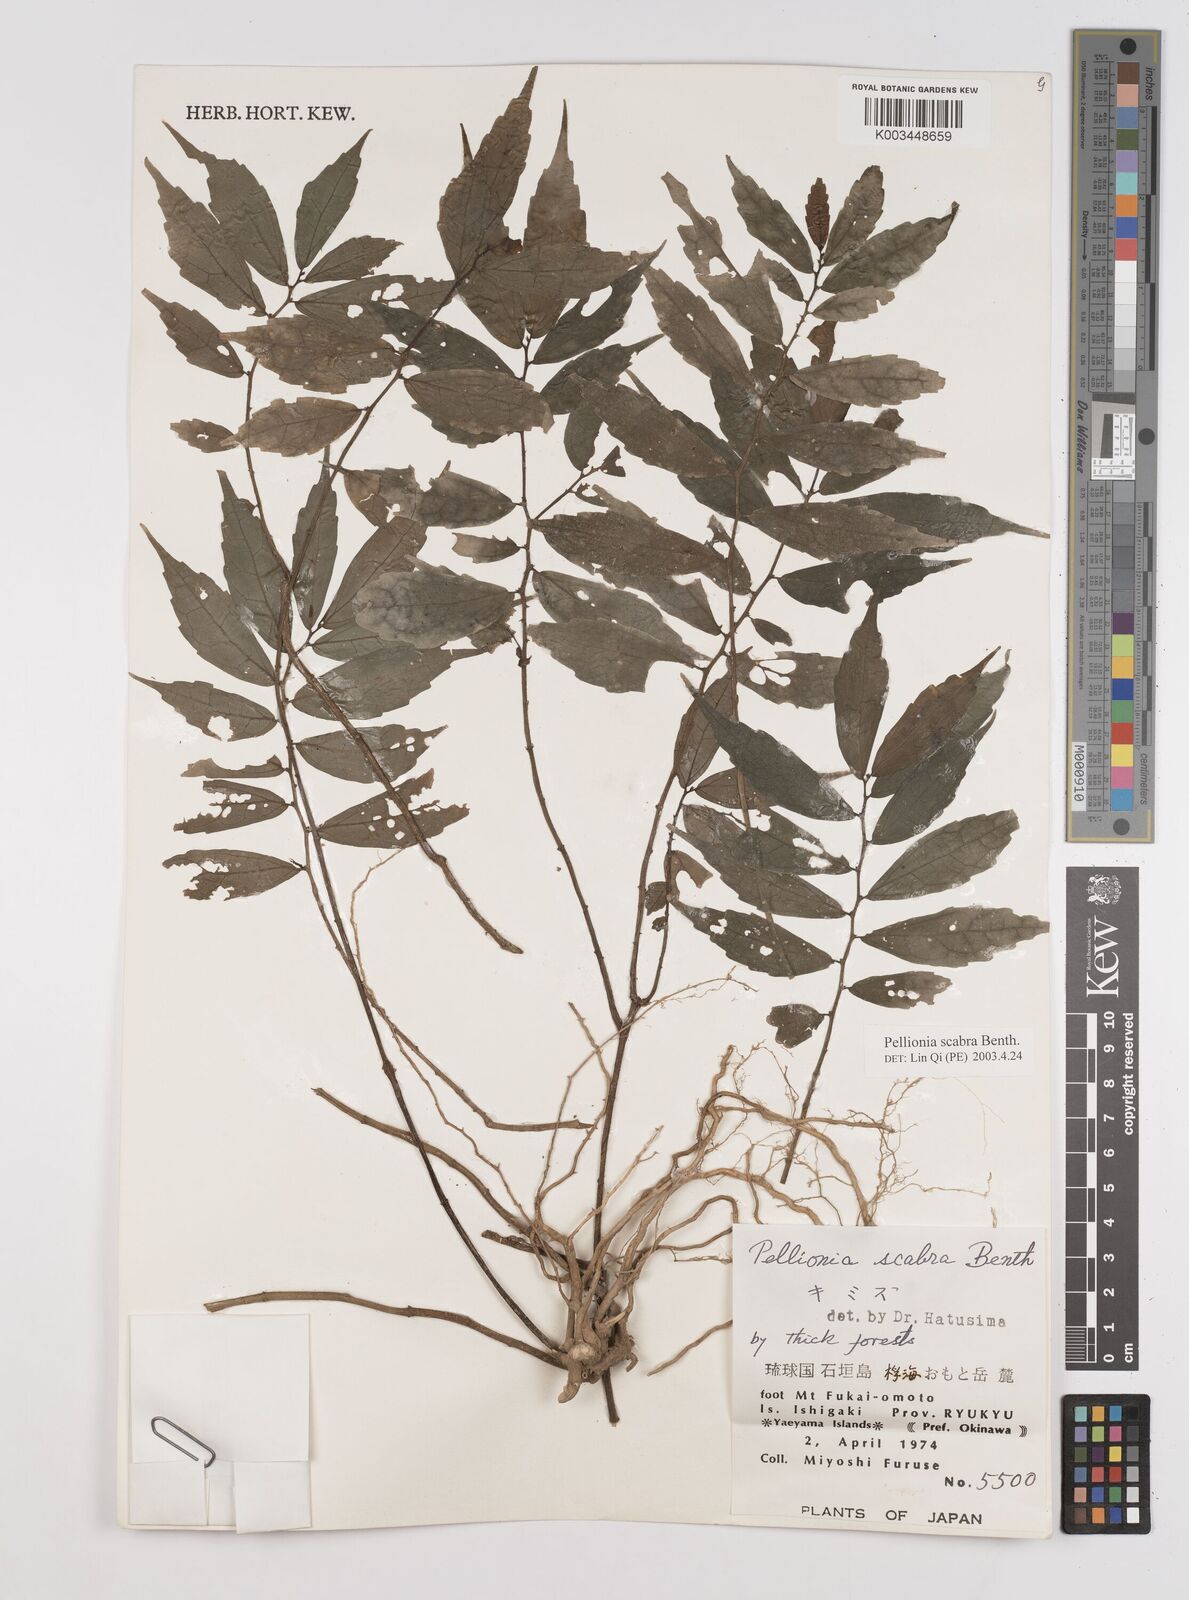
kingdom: Plantae
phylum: Tracheophyta
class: Magnoliopsida
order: Rosales
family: Urticaceae
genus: Elatostema
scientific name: Elatostema
